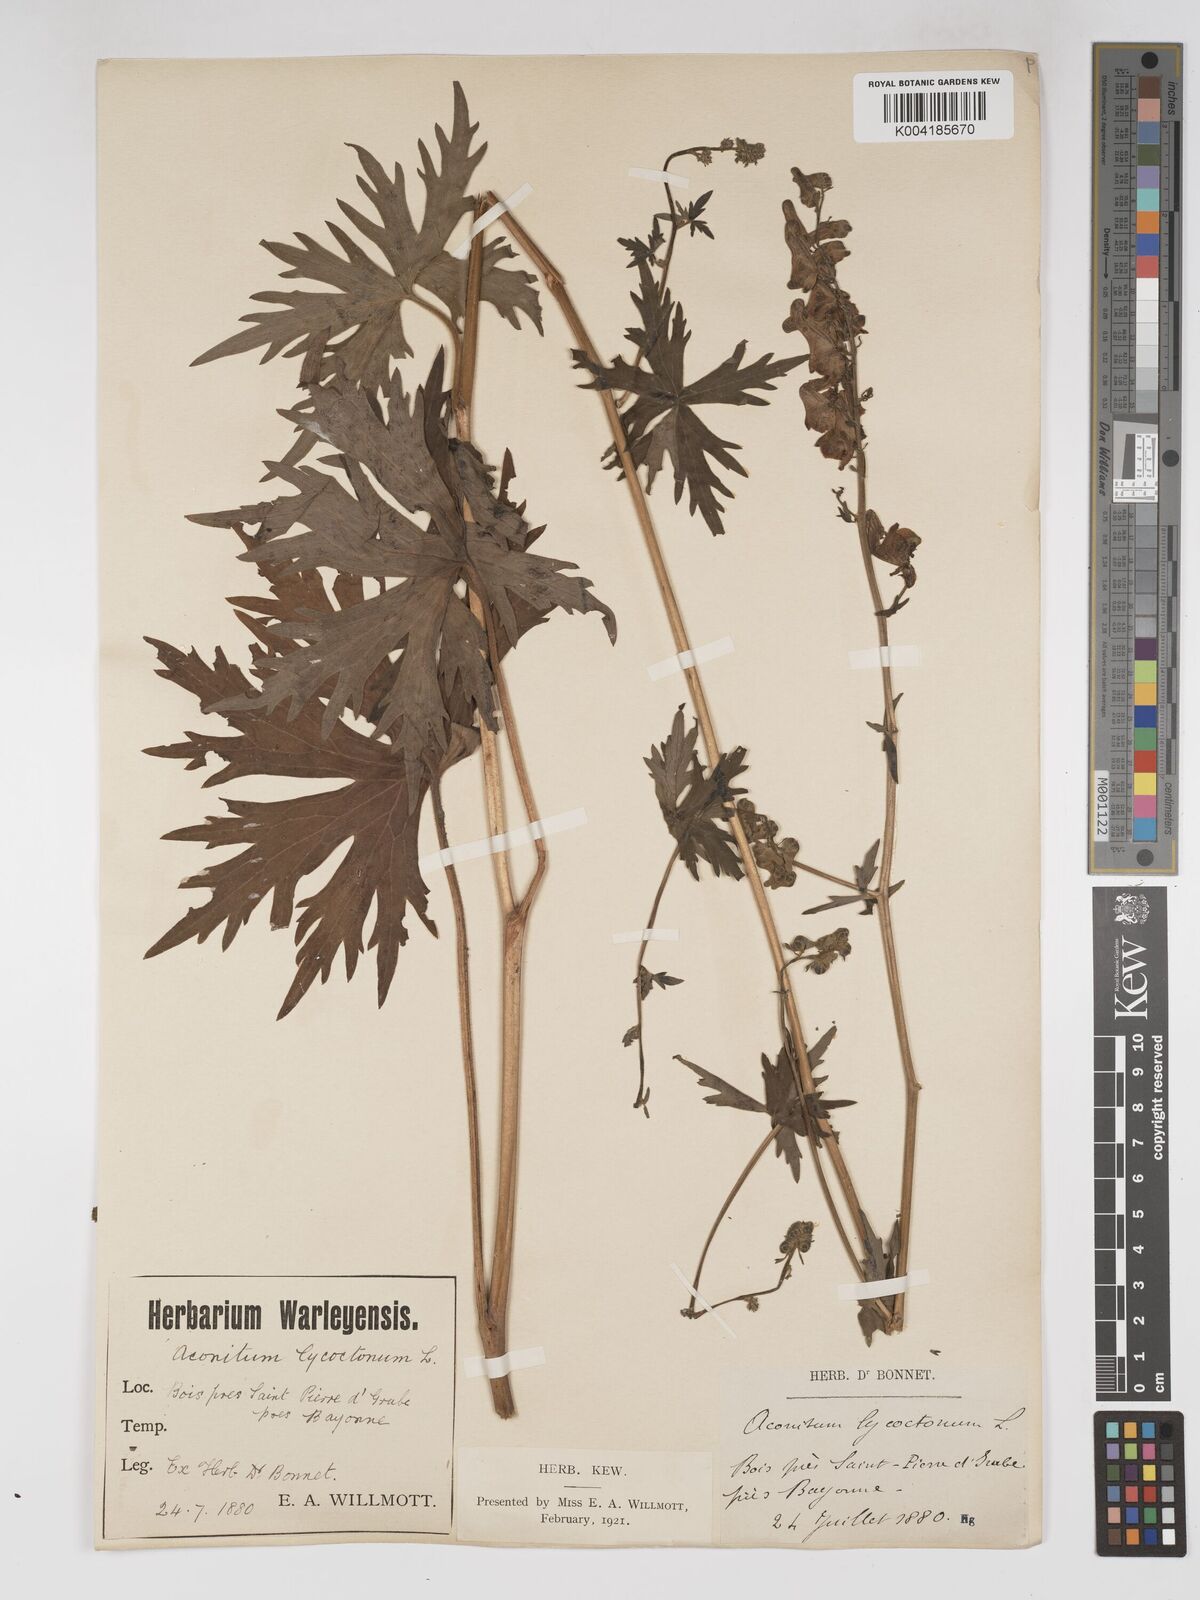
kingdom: Plantae
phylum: Tracheophyta
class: Magnoliopsida
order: Ranunculales
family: Ranunculaceae
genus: Aconitum
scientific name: Aconitum lycoctonum
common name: Wolf's-bane
